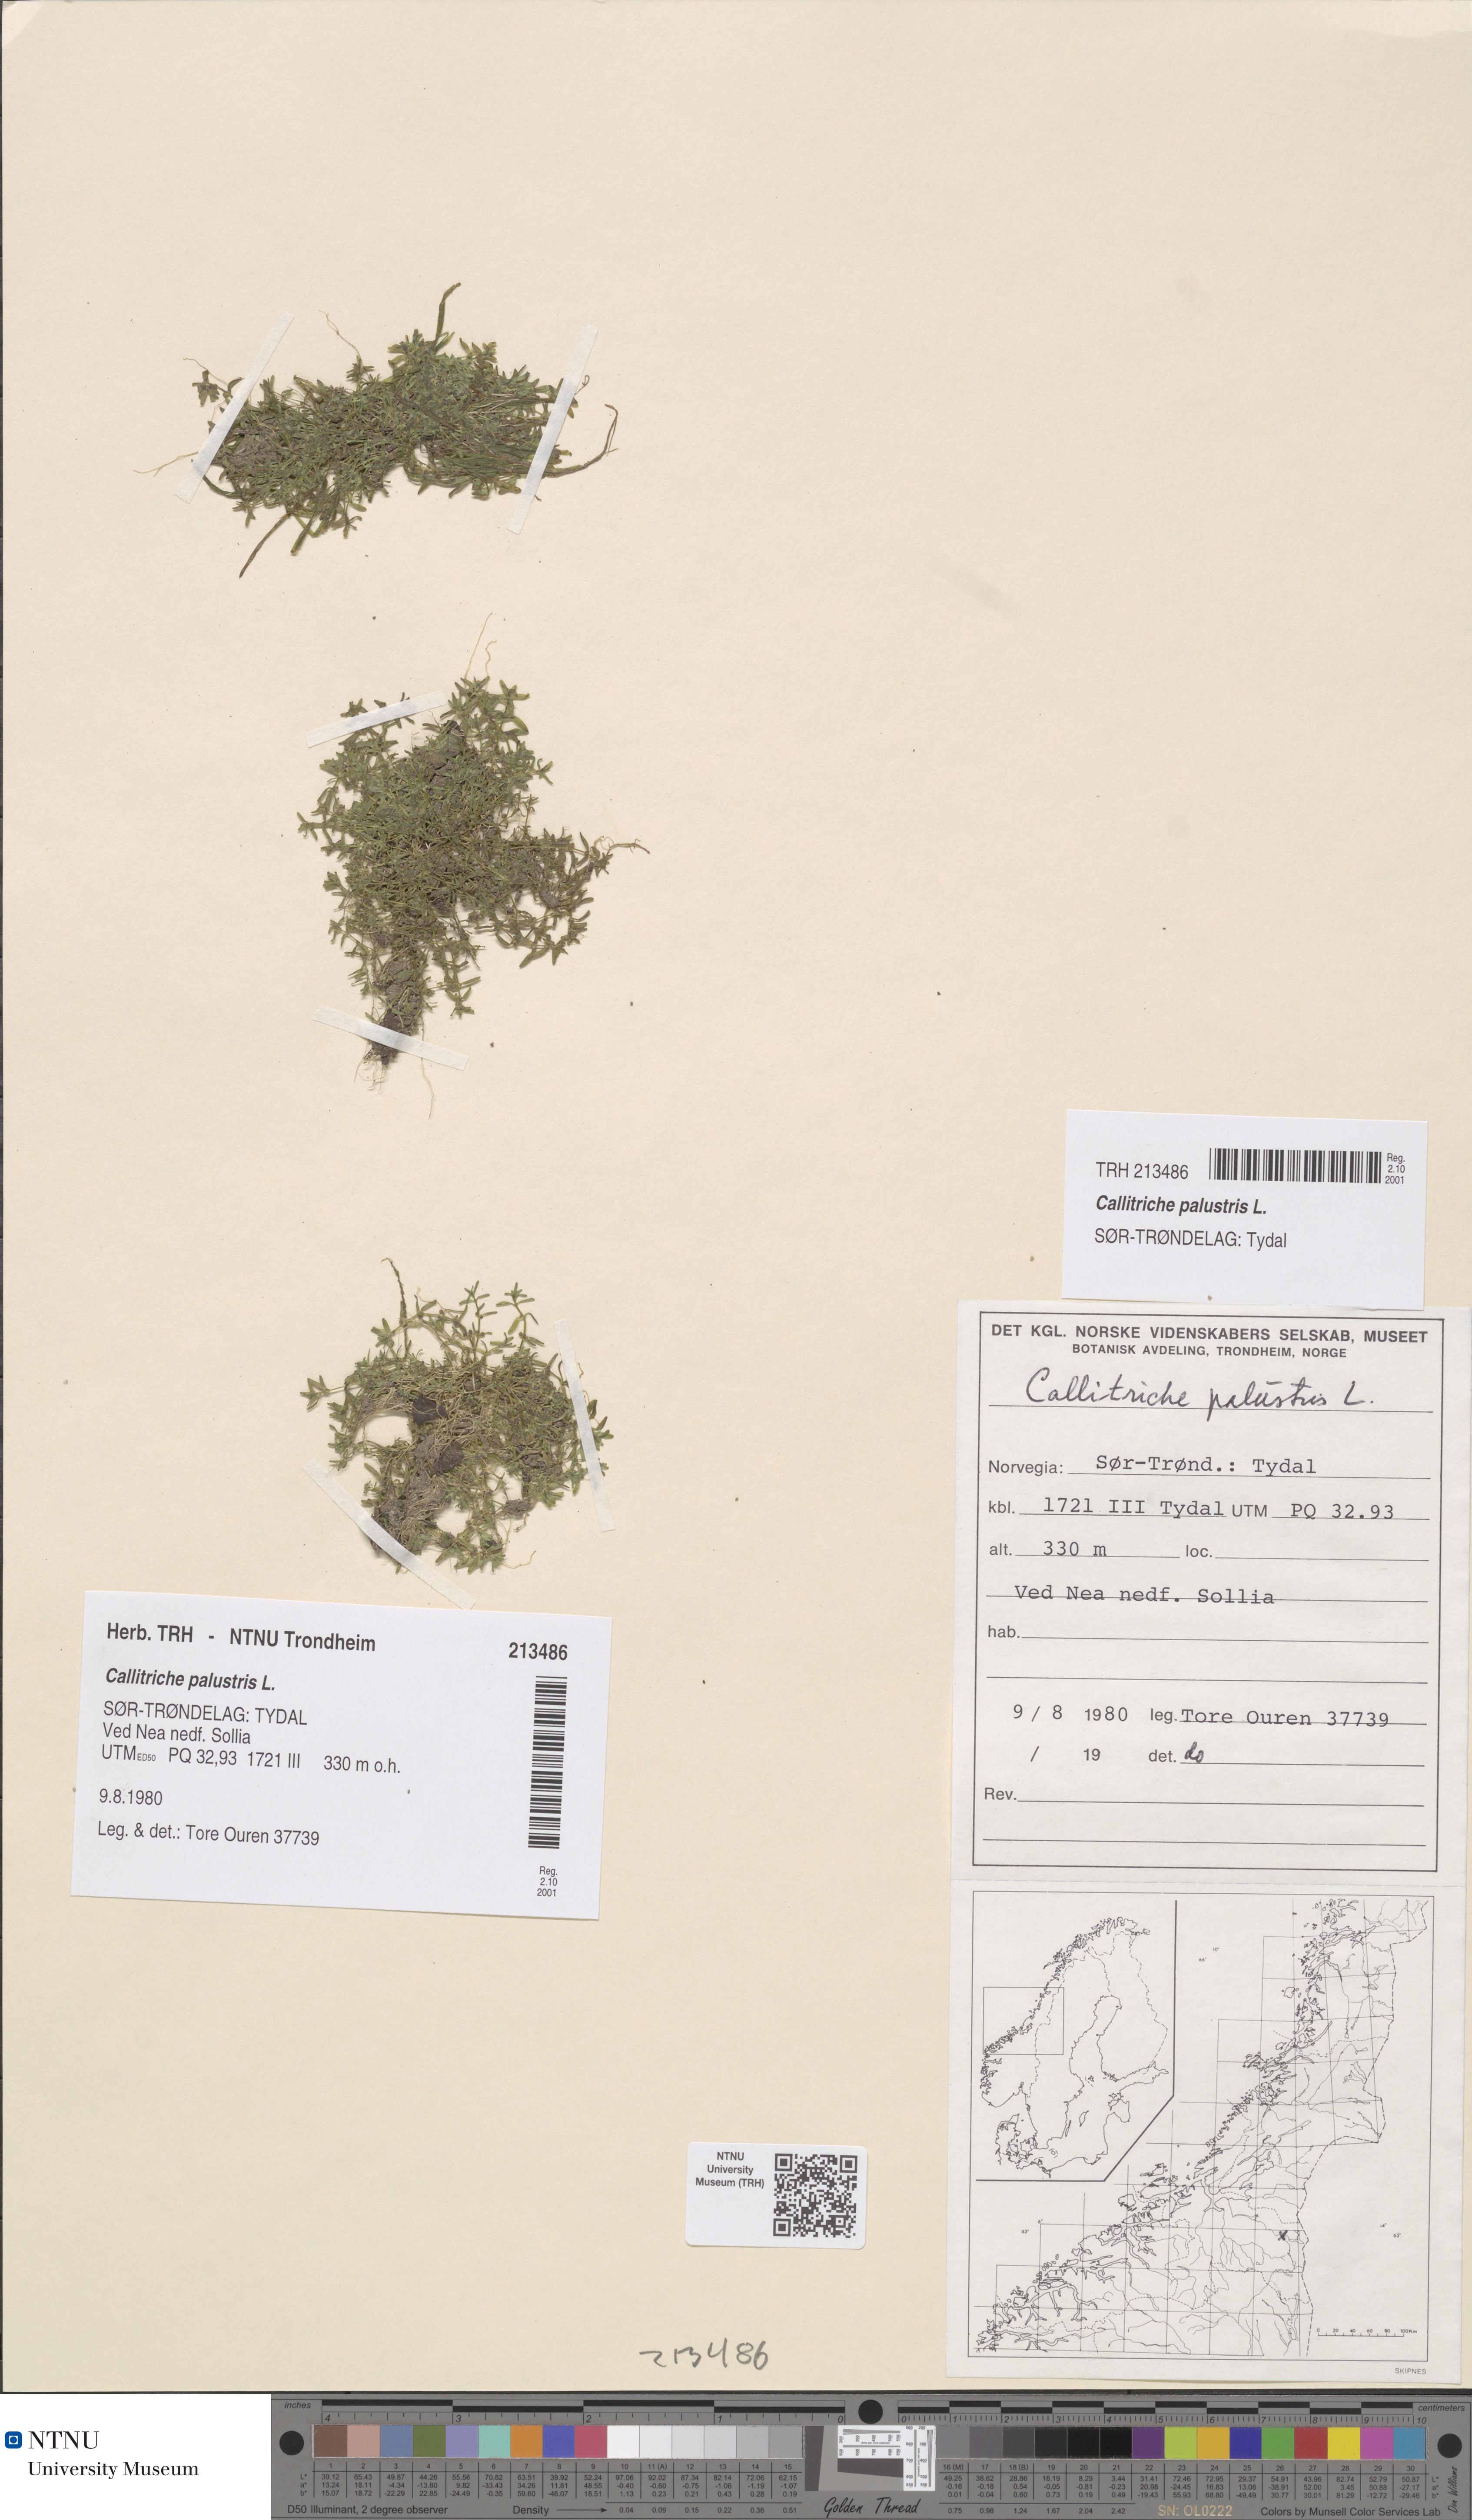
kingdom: Plantae
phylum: Tracheophyta
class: Magnoliopsida
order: Lamiales
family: Plantaginaceae
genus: Callitriche
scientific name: Callitriche palustris
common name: Spring water-starwort
